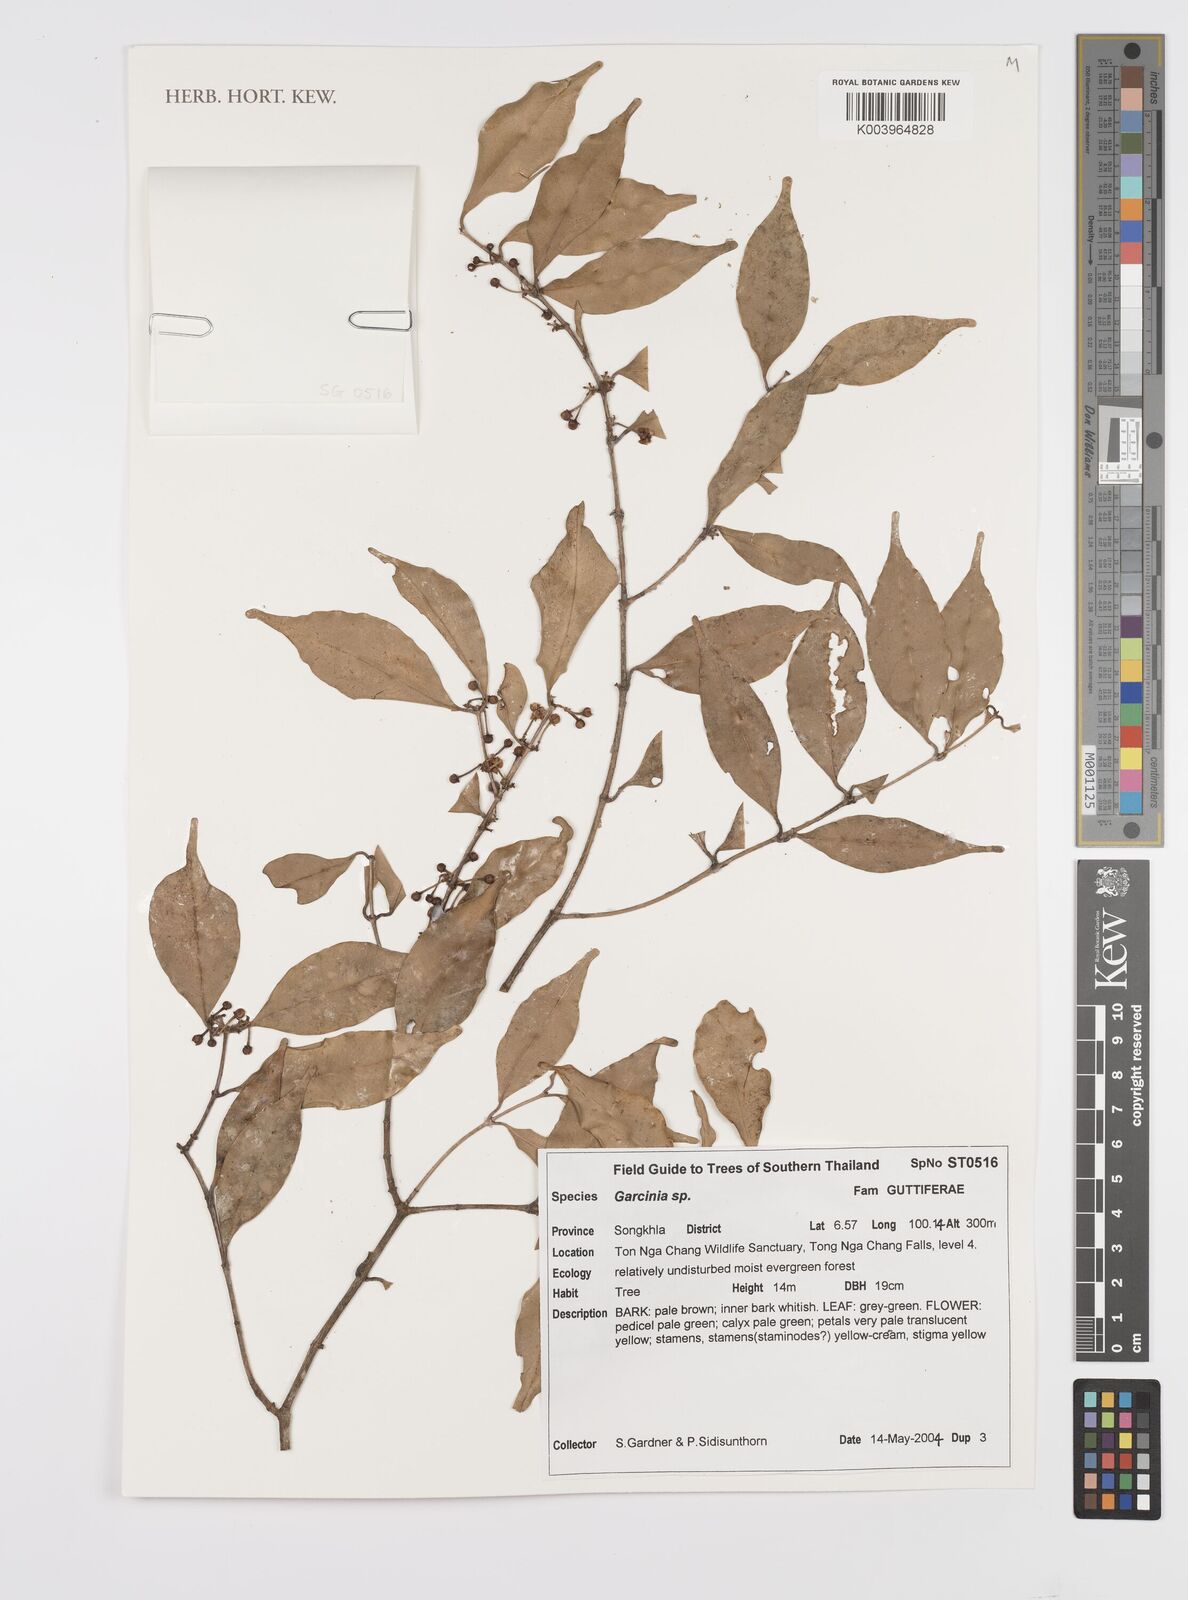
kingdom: Plantae
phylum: Tracheophyta
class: Magnoliopsida
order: Malpighiales
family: Clusiaceae
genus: Garcinia
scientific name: Garcinia
